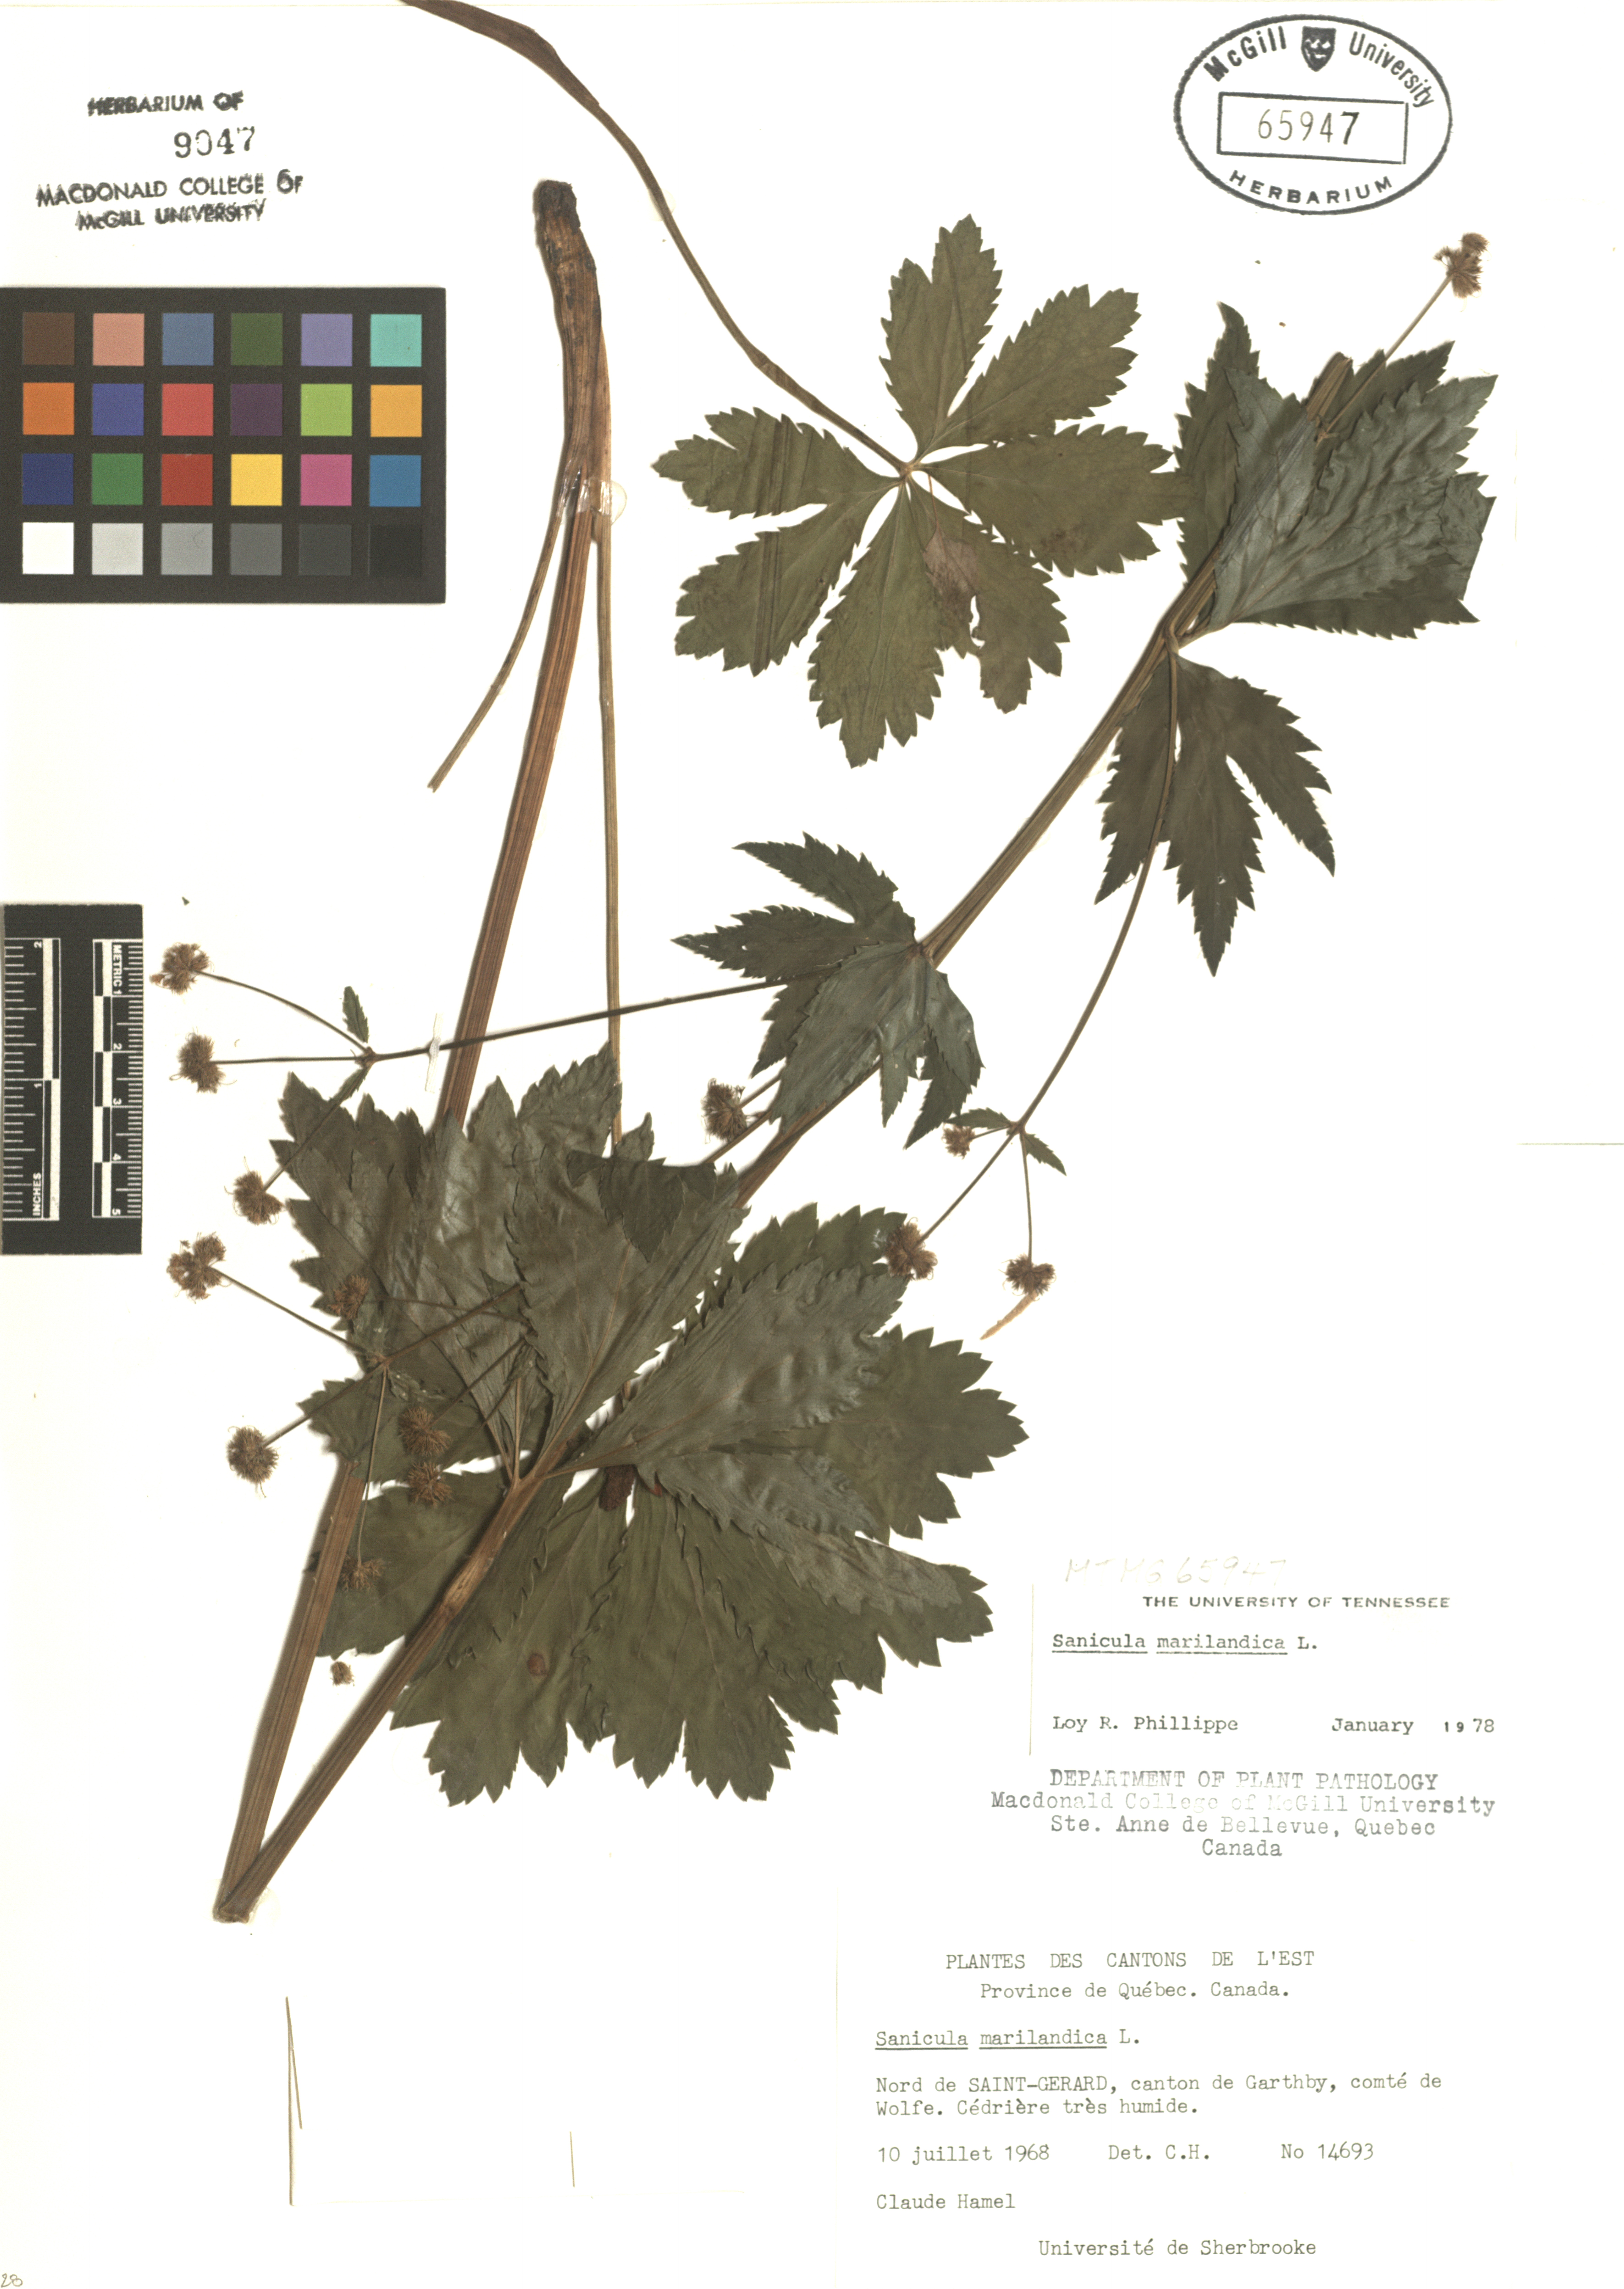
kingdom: Plantae
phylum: Tracheophyta
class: Magnoliopsida
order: Apiales
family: Apiaceae
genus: Sanicula
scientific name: Sanicula marilandica
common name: Black snakeroot
